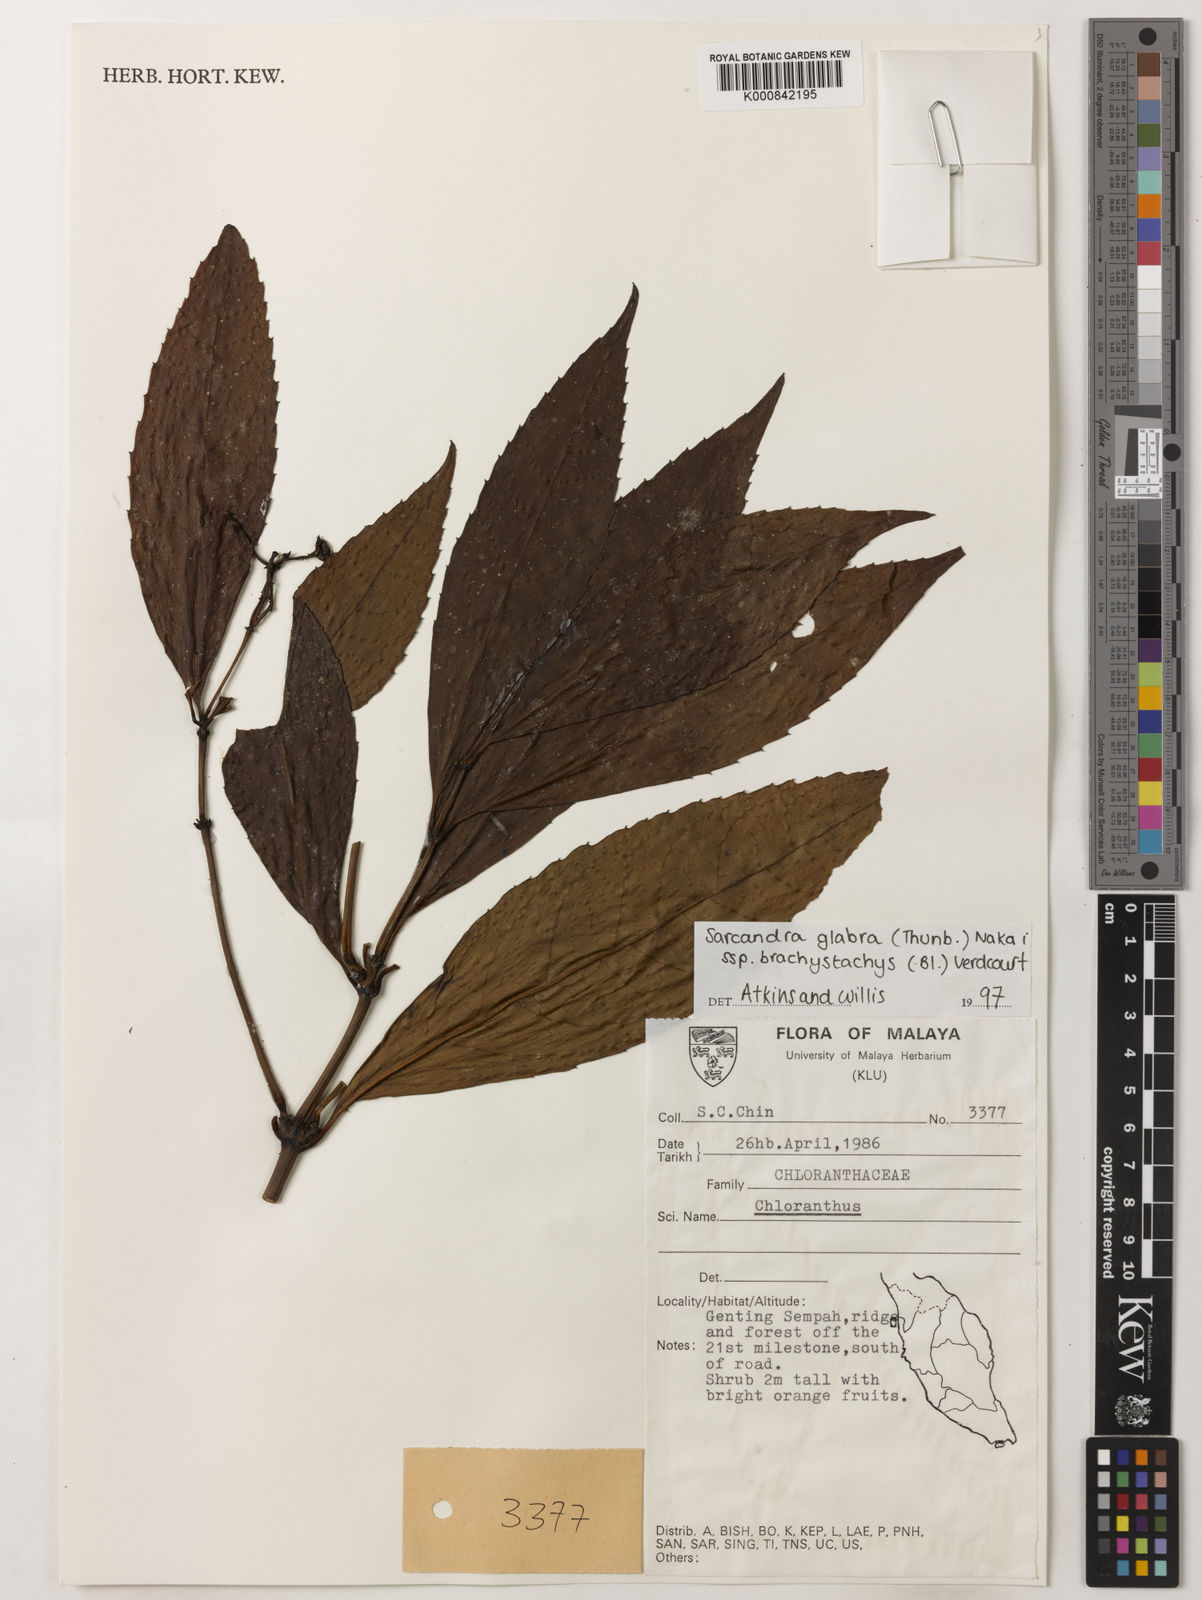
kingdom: Plantae
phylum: Tracheophyta
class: Magnoliopsida
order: Chloranthales
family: Chloranthaceae
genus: Sarcandra
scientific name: Sarcandra glabra
